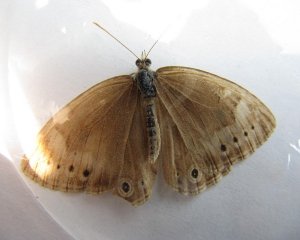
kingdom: Animalia
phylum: Arthropoda
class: Insecta
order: Lepidoptera
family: Nymphalidae
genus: Lethe
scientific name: Lethe eurydice
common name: Eyed Brown
